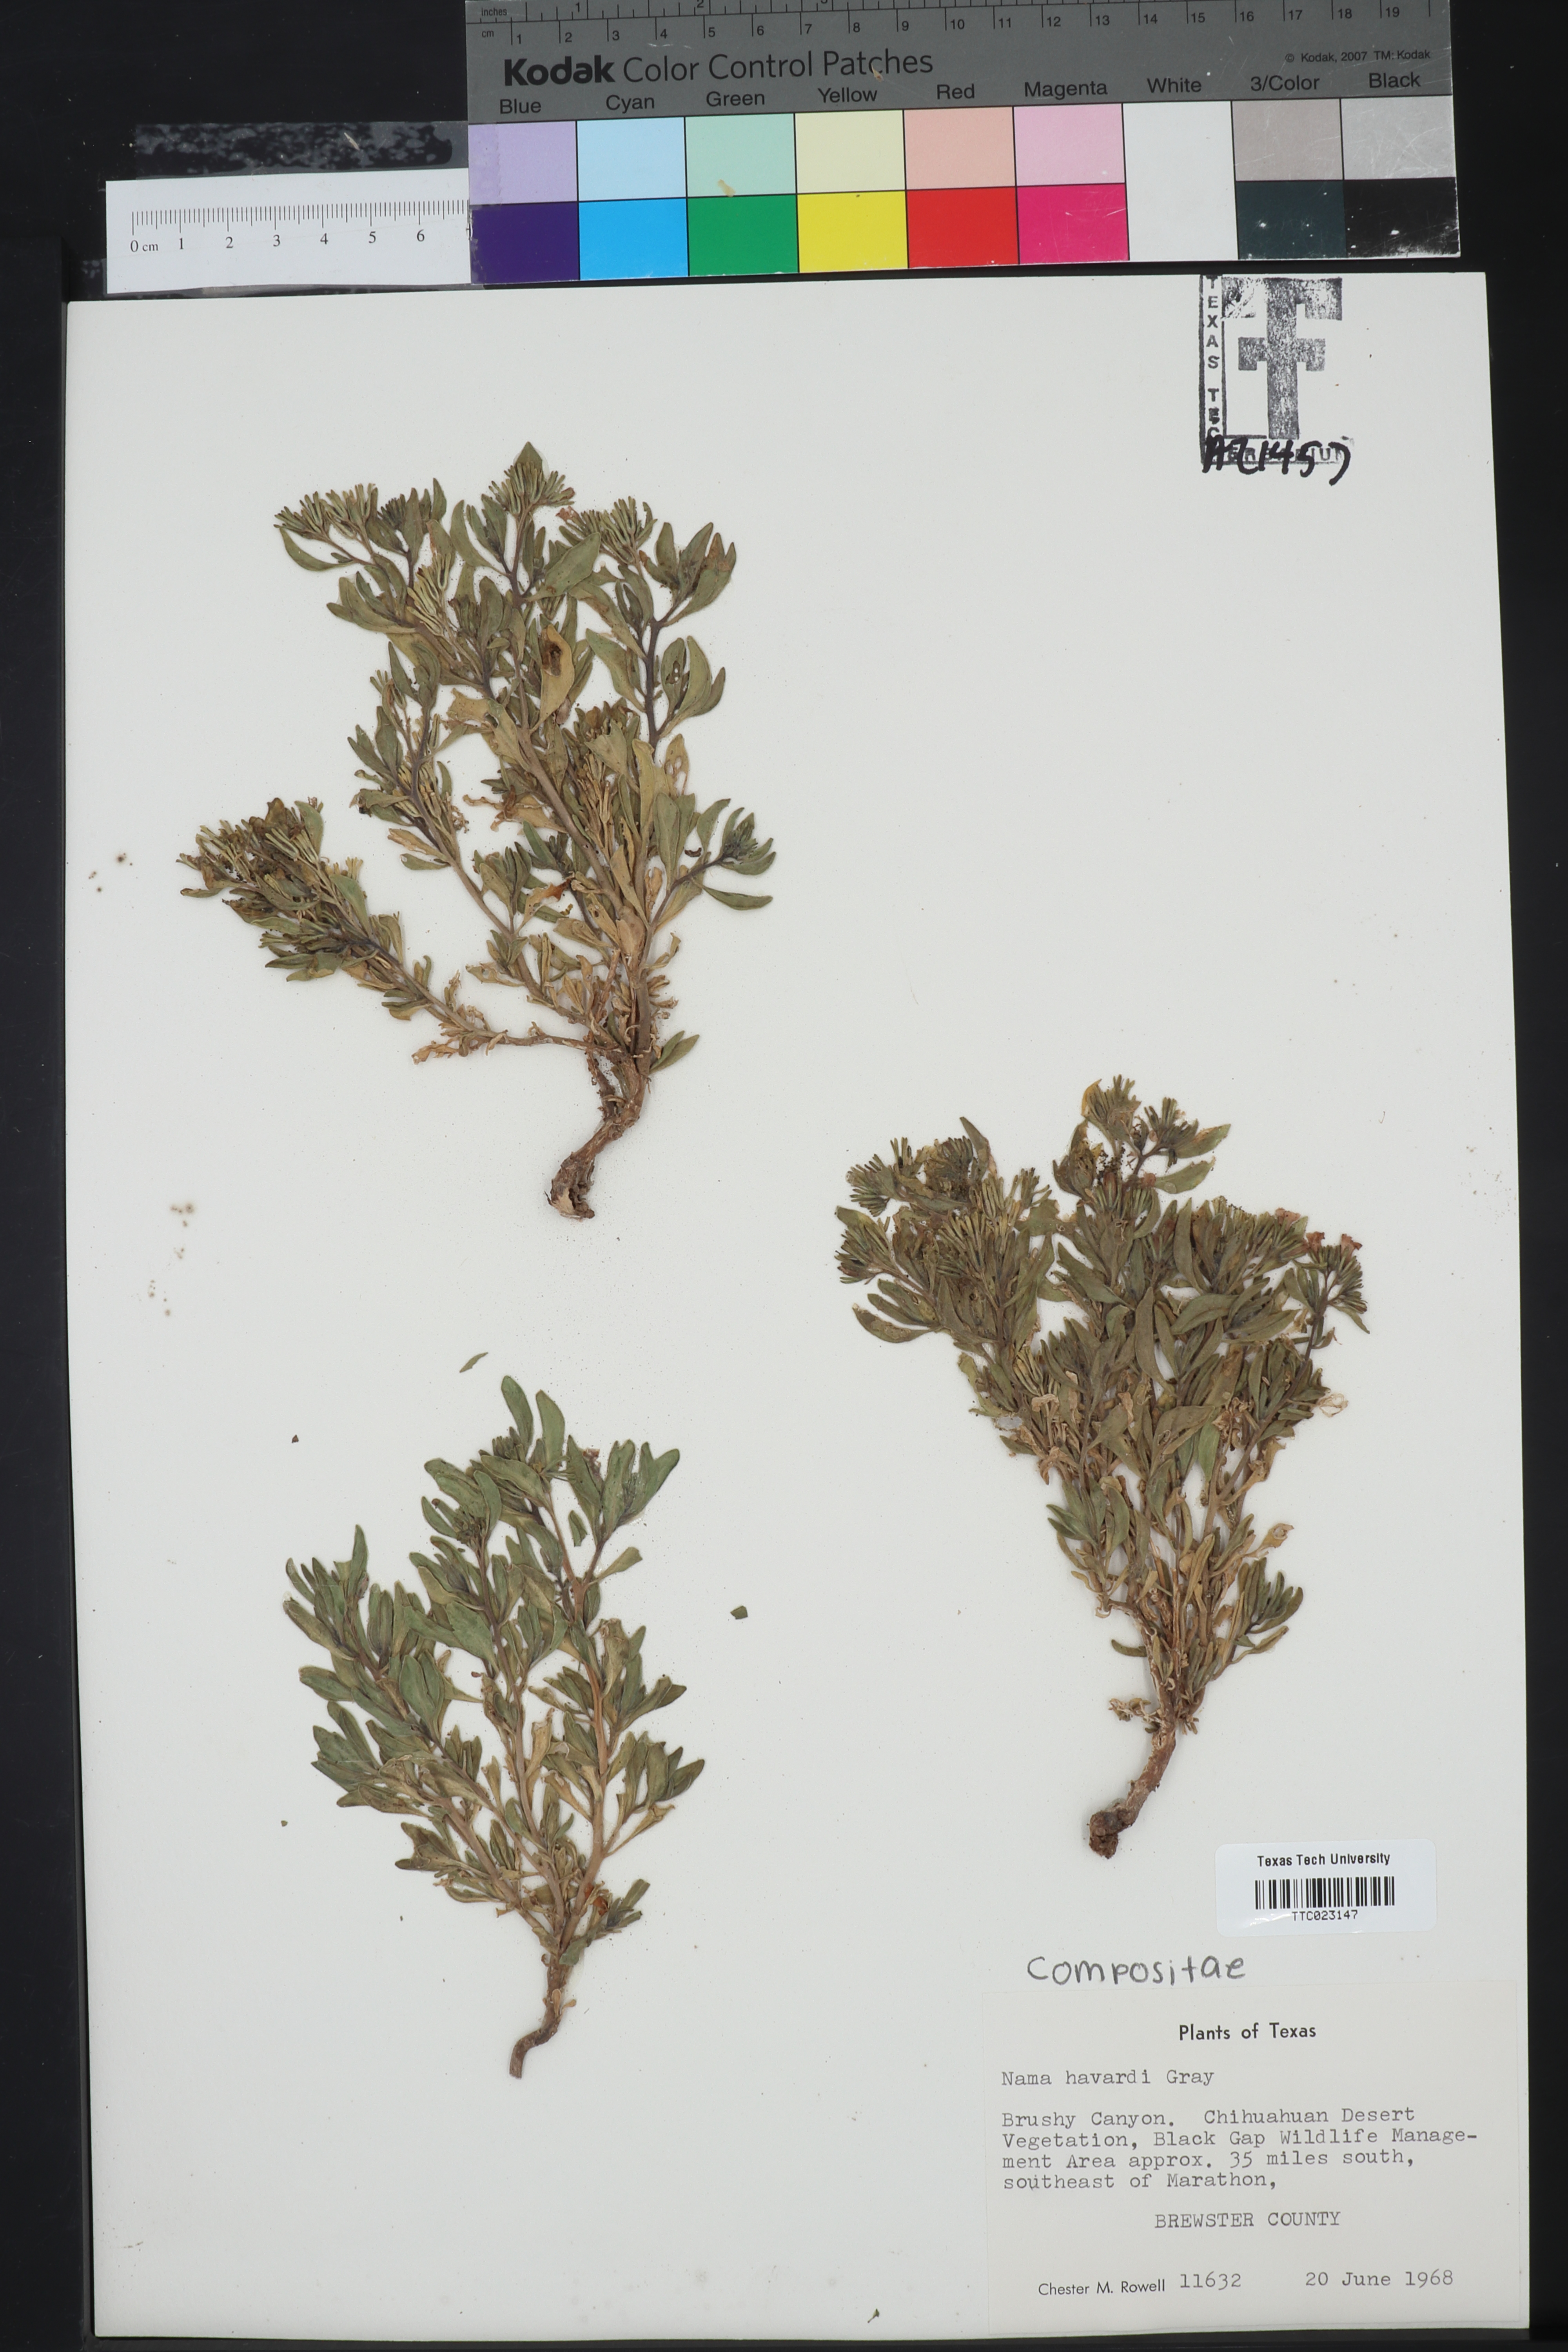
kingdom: Plantae
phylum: Tracheophyta
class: Magnoliopsida
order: Boraginales
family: Namaceae
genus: Nama
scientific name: Nama havardii
